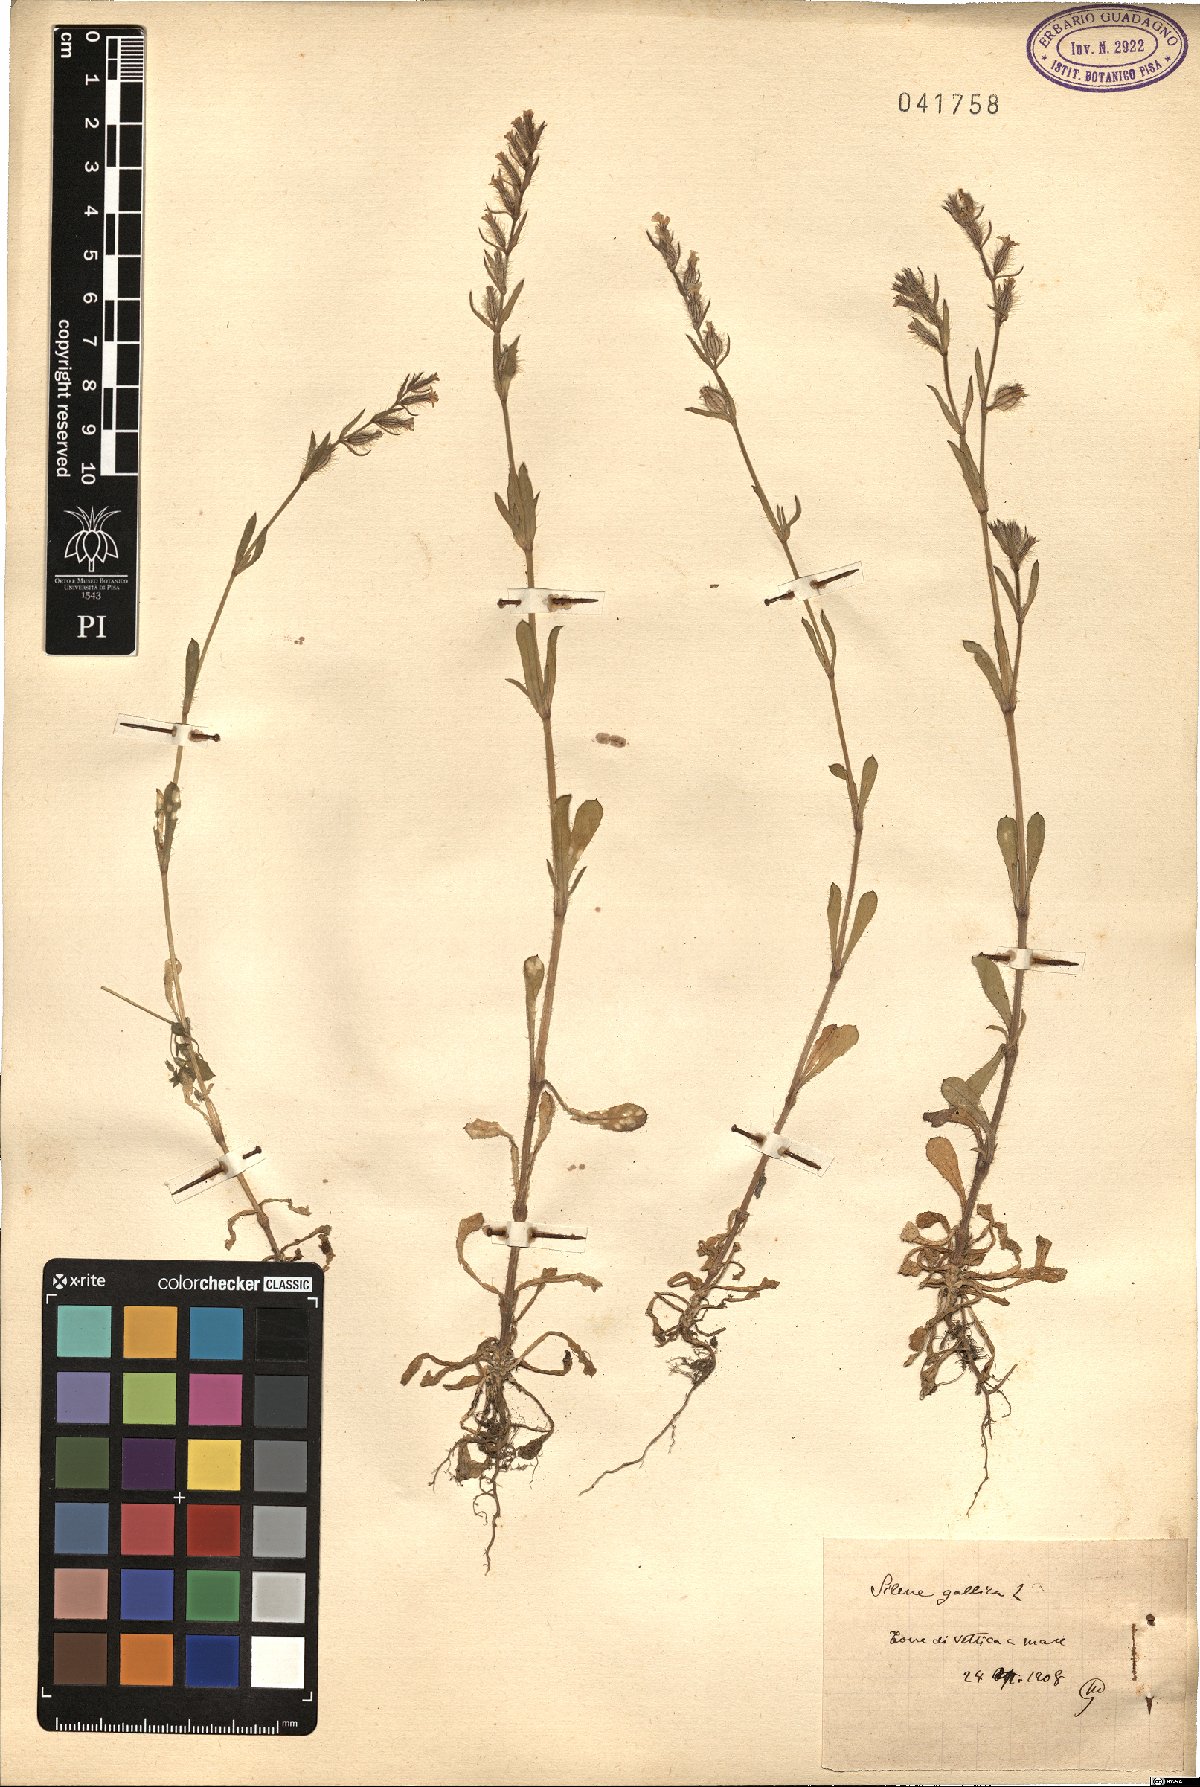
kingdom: Plantae
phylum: Tracheophyta
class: Magnoliopsida
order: Caryophyllales
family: Caryophyllaceae
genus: Silene
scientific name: Silene gallica
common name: Small-flowered catchfly
